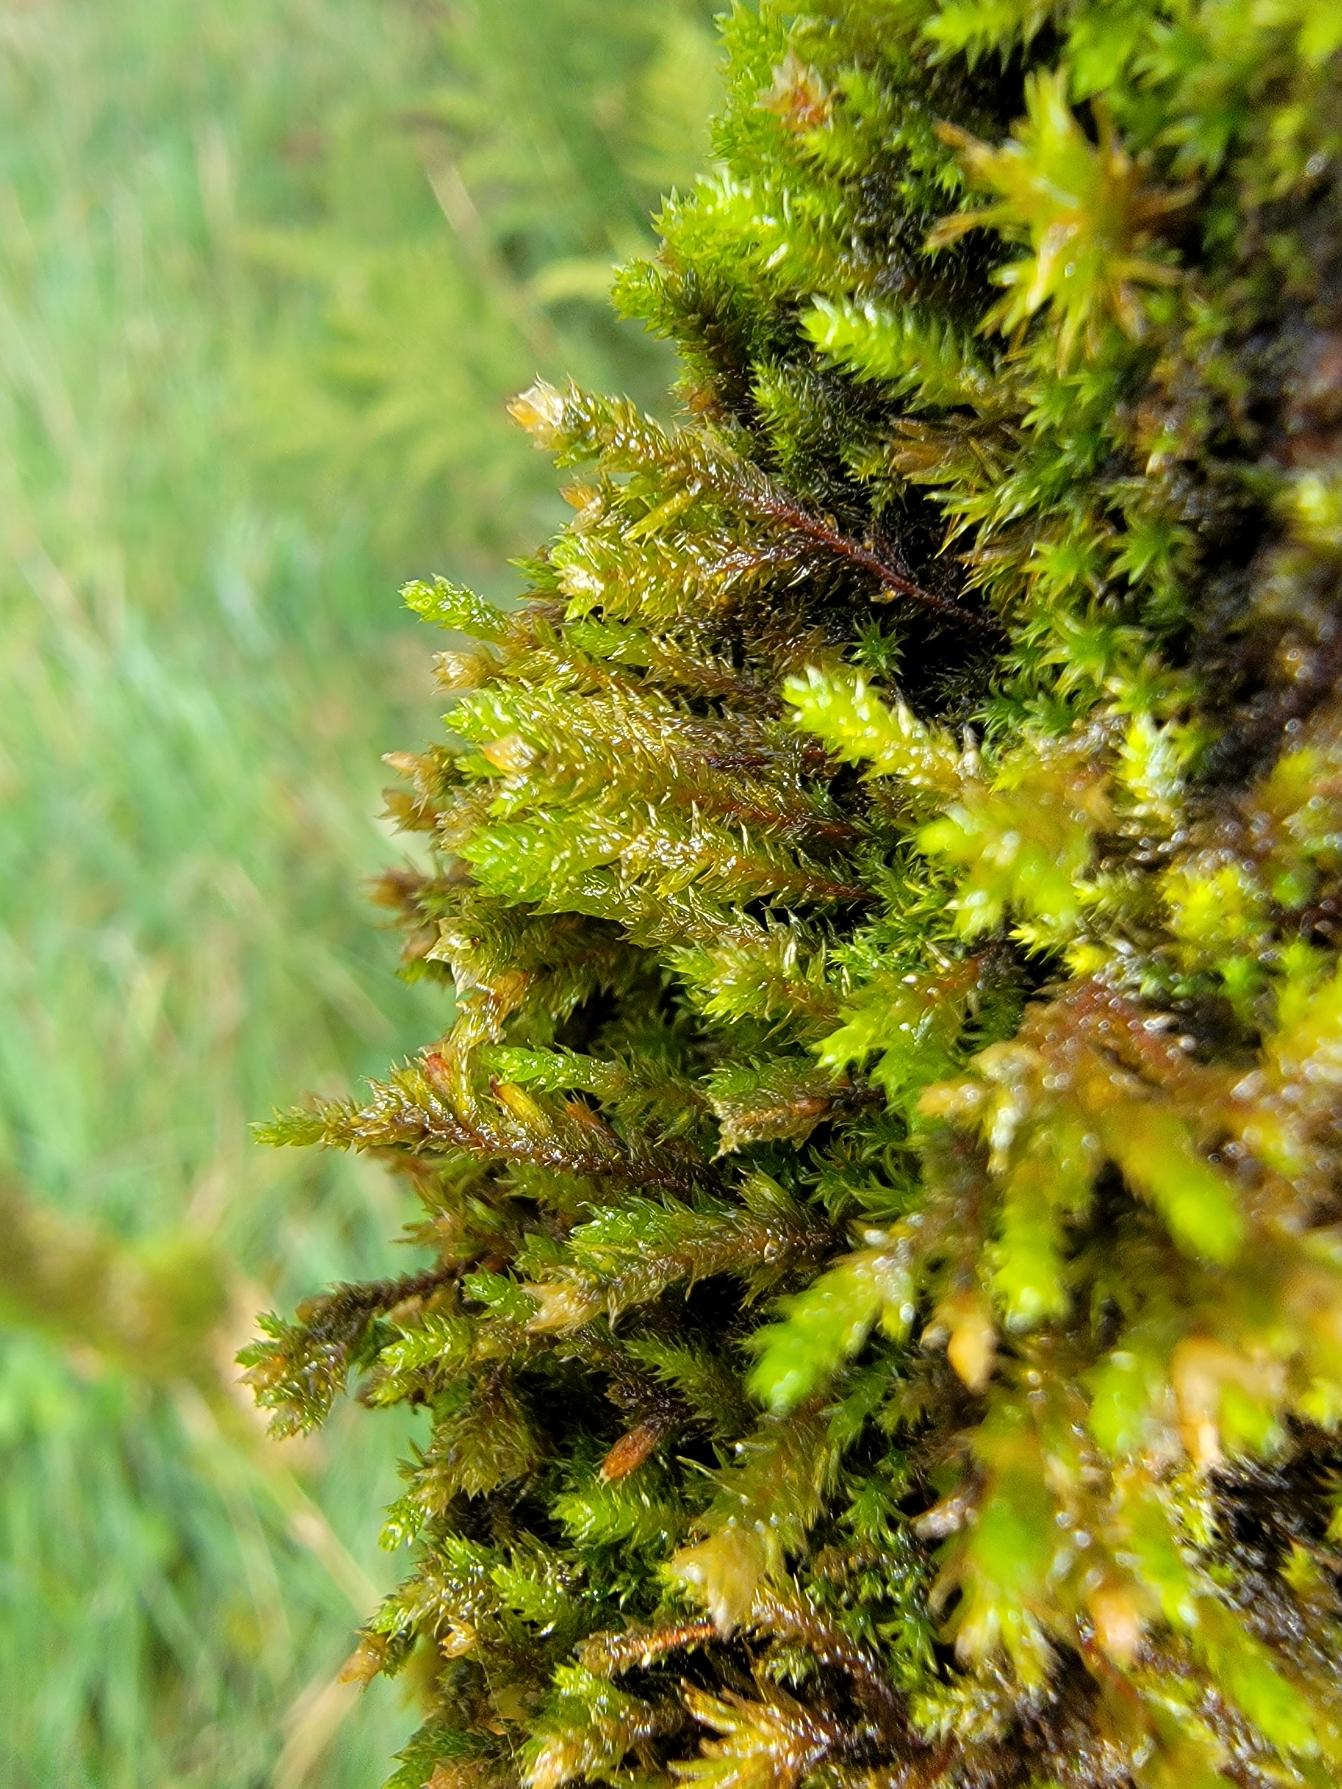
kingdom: Plantae
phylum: Bryophyta
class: Bryopsida
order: Hypnales
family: Cryphaeaceae
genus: Cryphaea
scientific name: Cryphaea heteromalla
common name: Bark-dækmos
